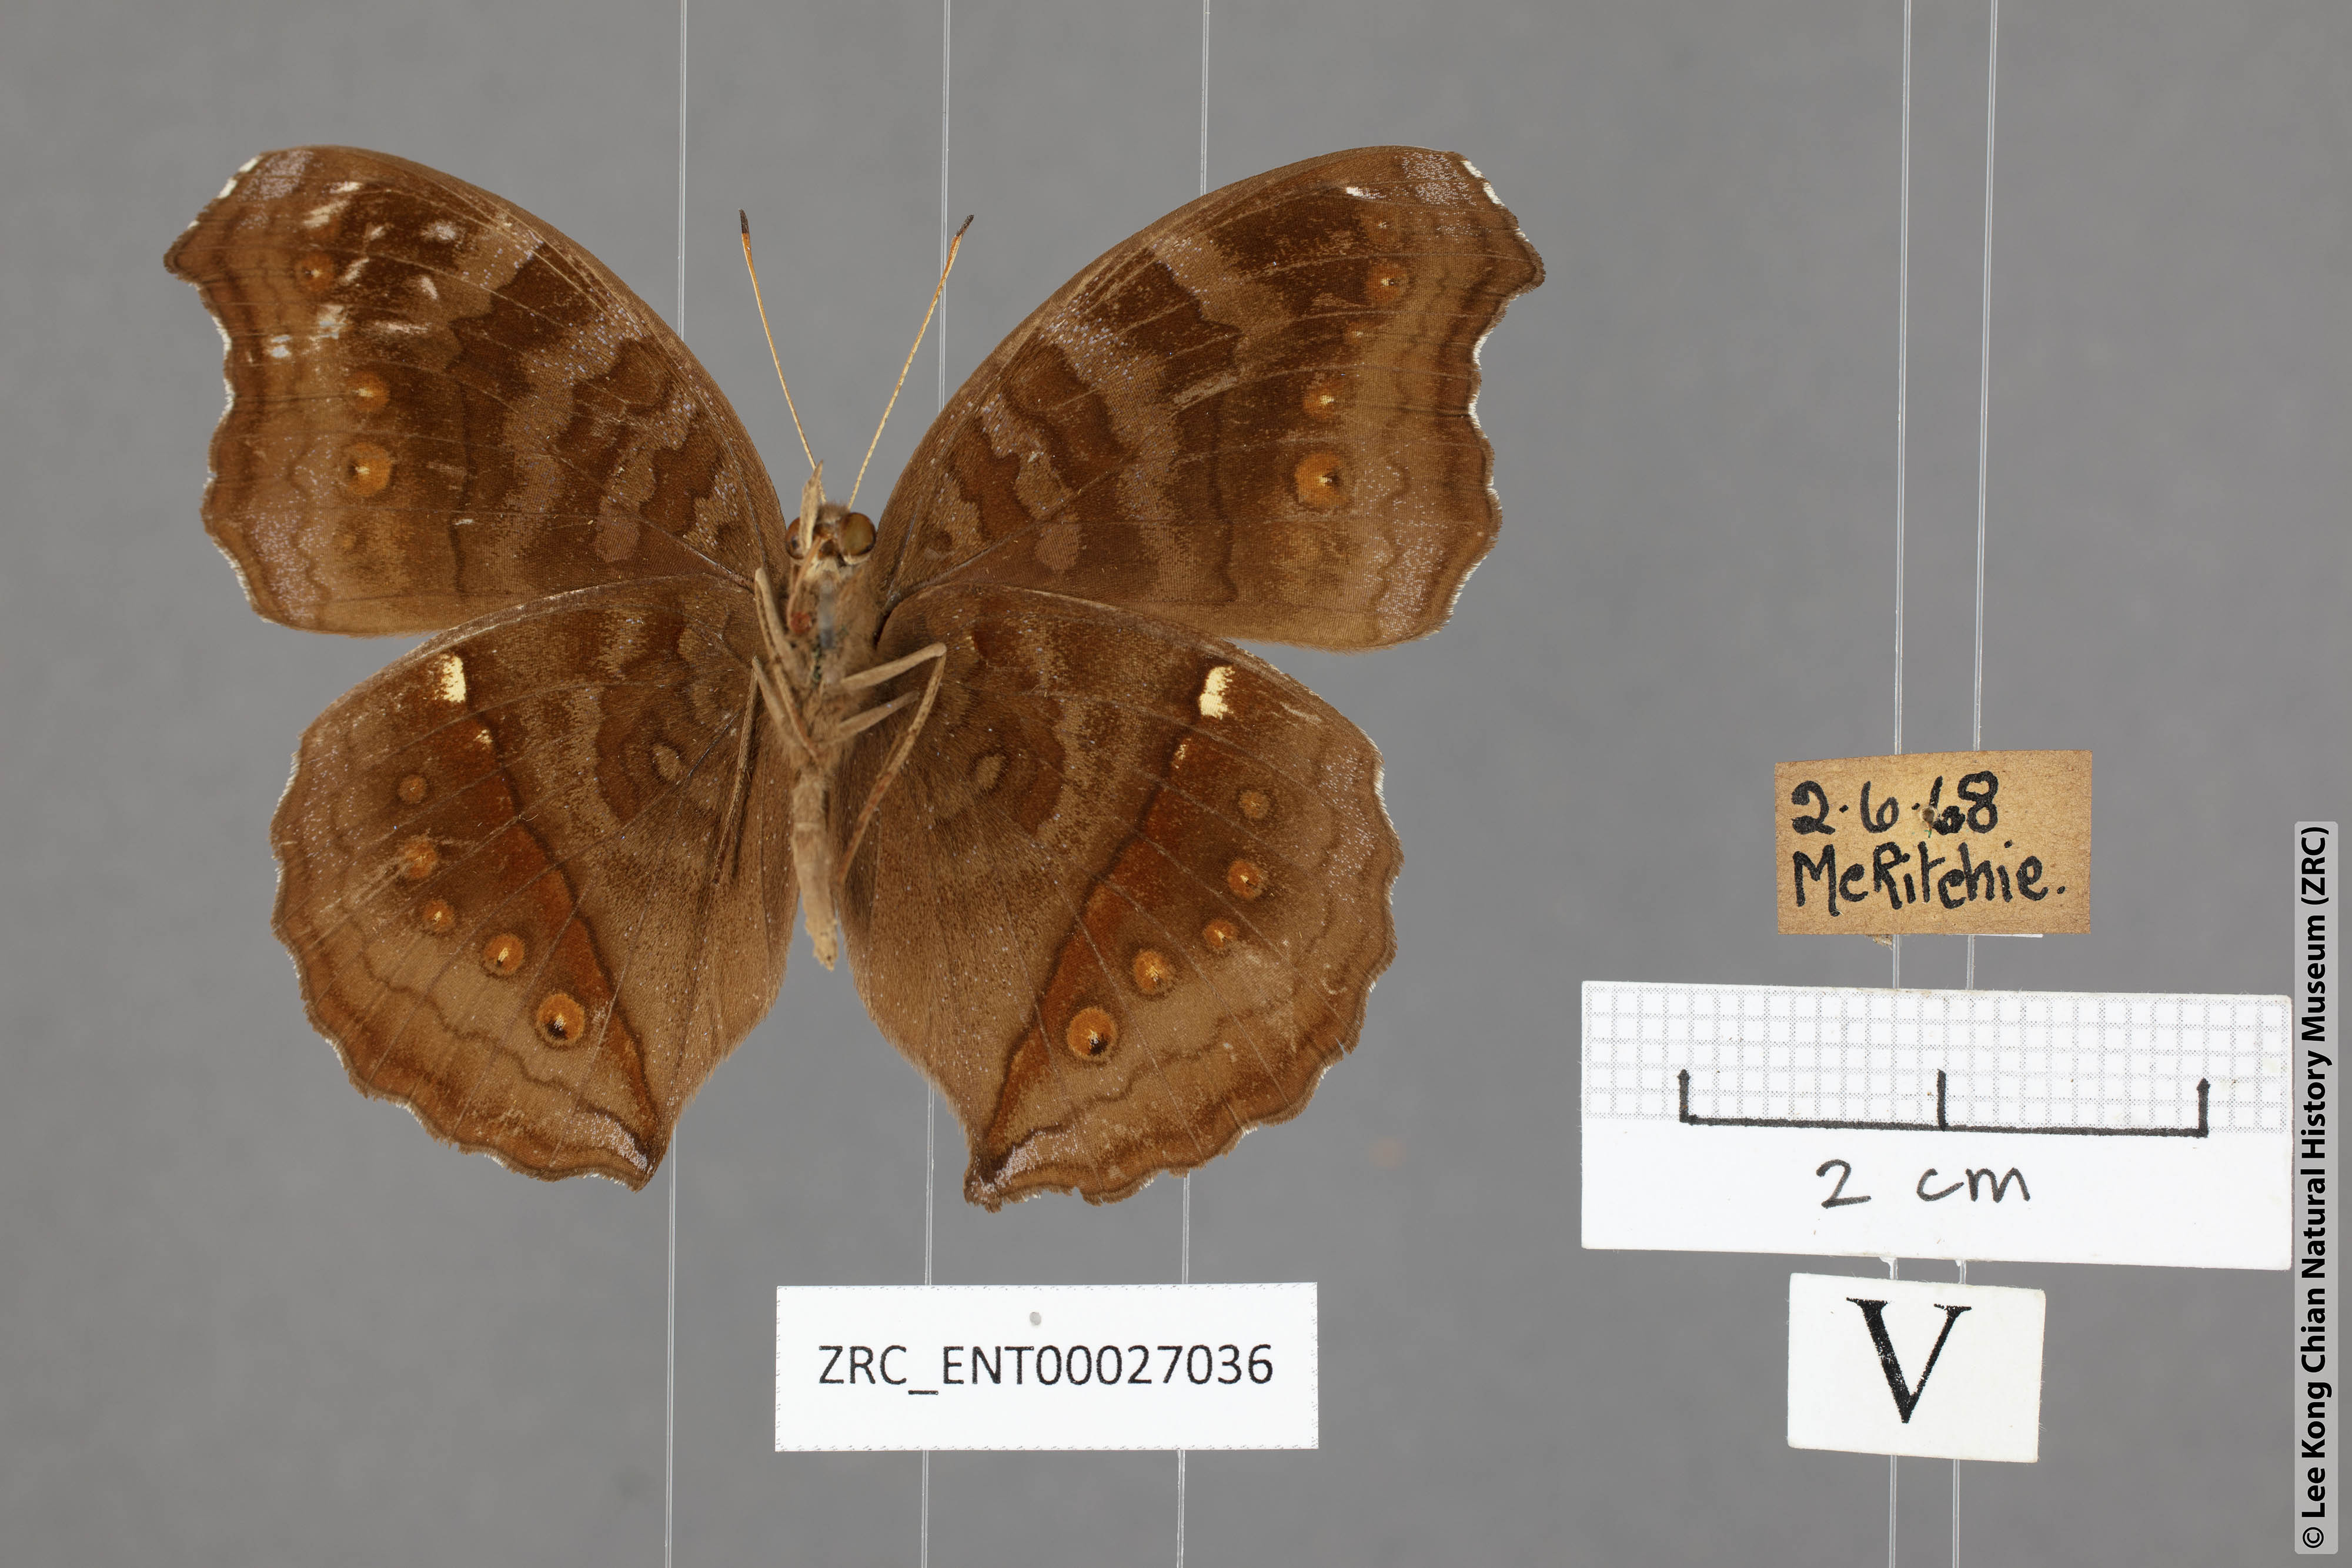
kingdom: Animalia
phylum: Arthropoda
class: Insecta
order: Lepidoptera
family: Nymphalidae
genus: Junonia
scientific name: Junonia hedonia
